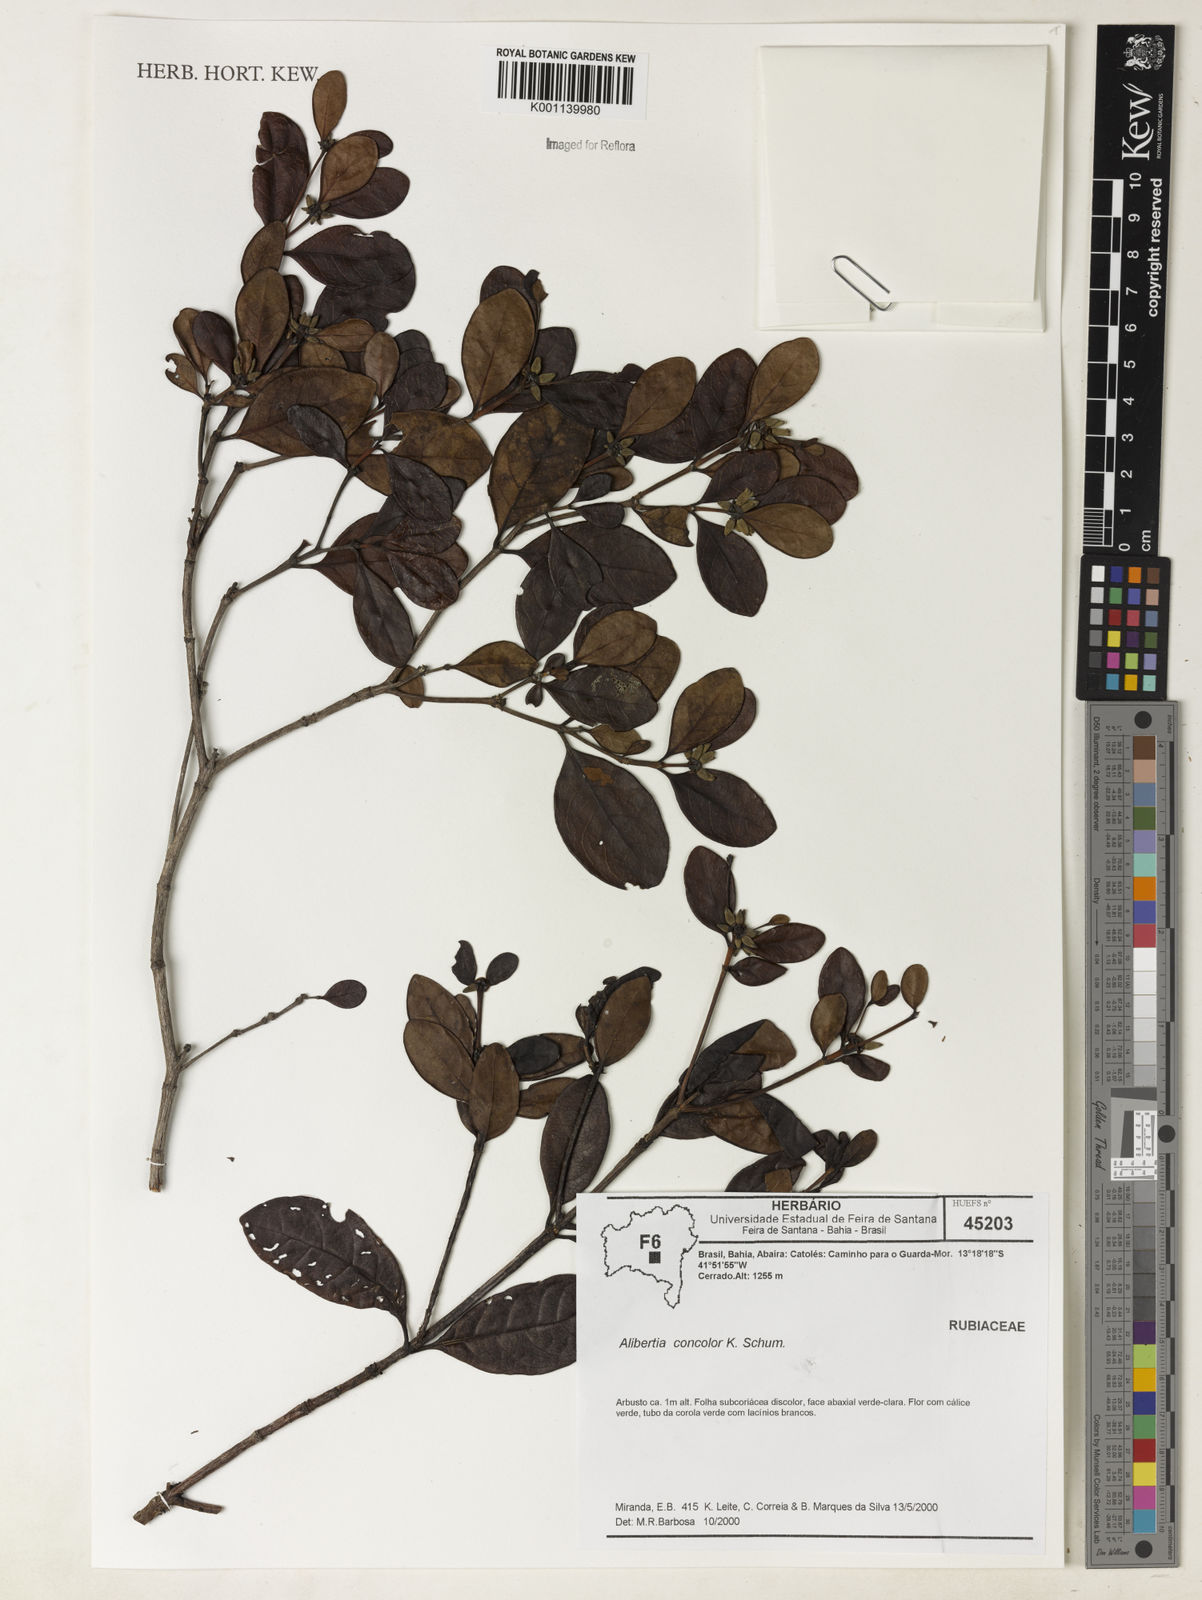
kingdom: Plantae
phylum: Tracheophyta
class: Magnoliopsida
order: Gentianales
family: Rubiaceae
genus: Cordiera
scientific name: Cordiera concolor
